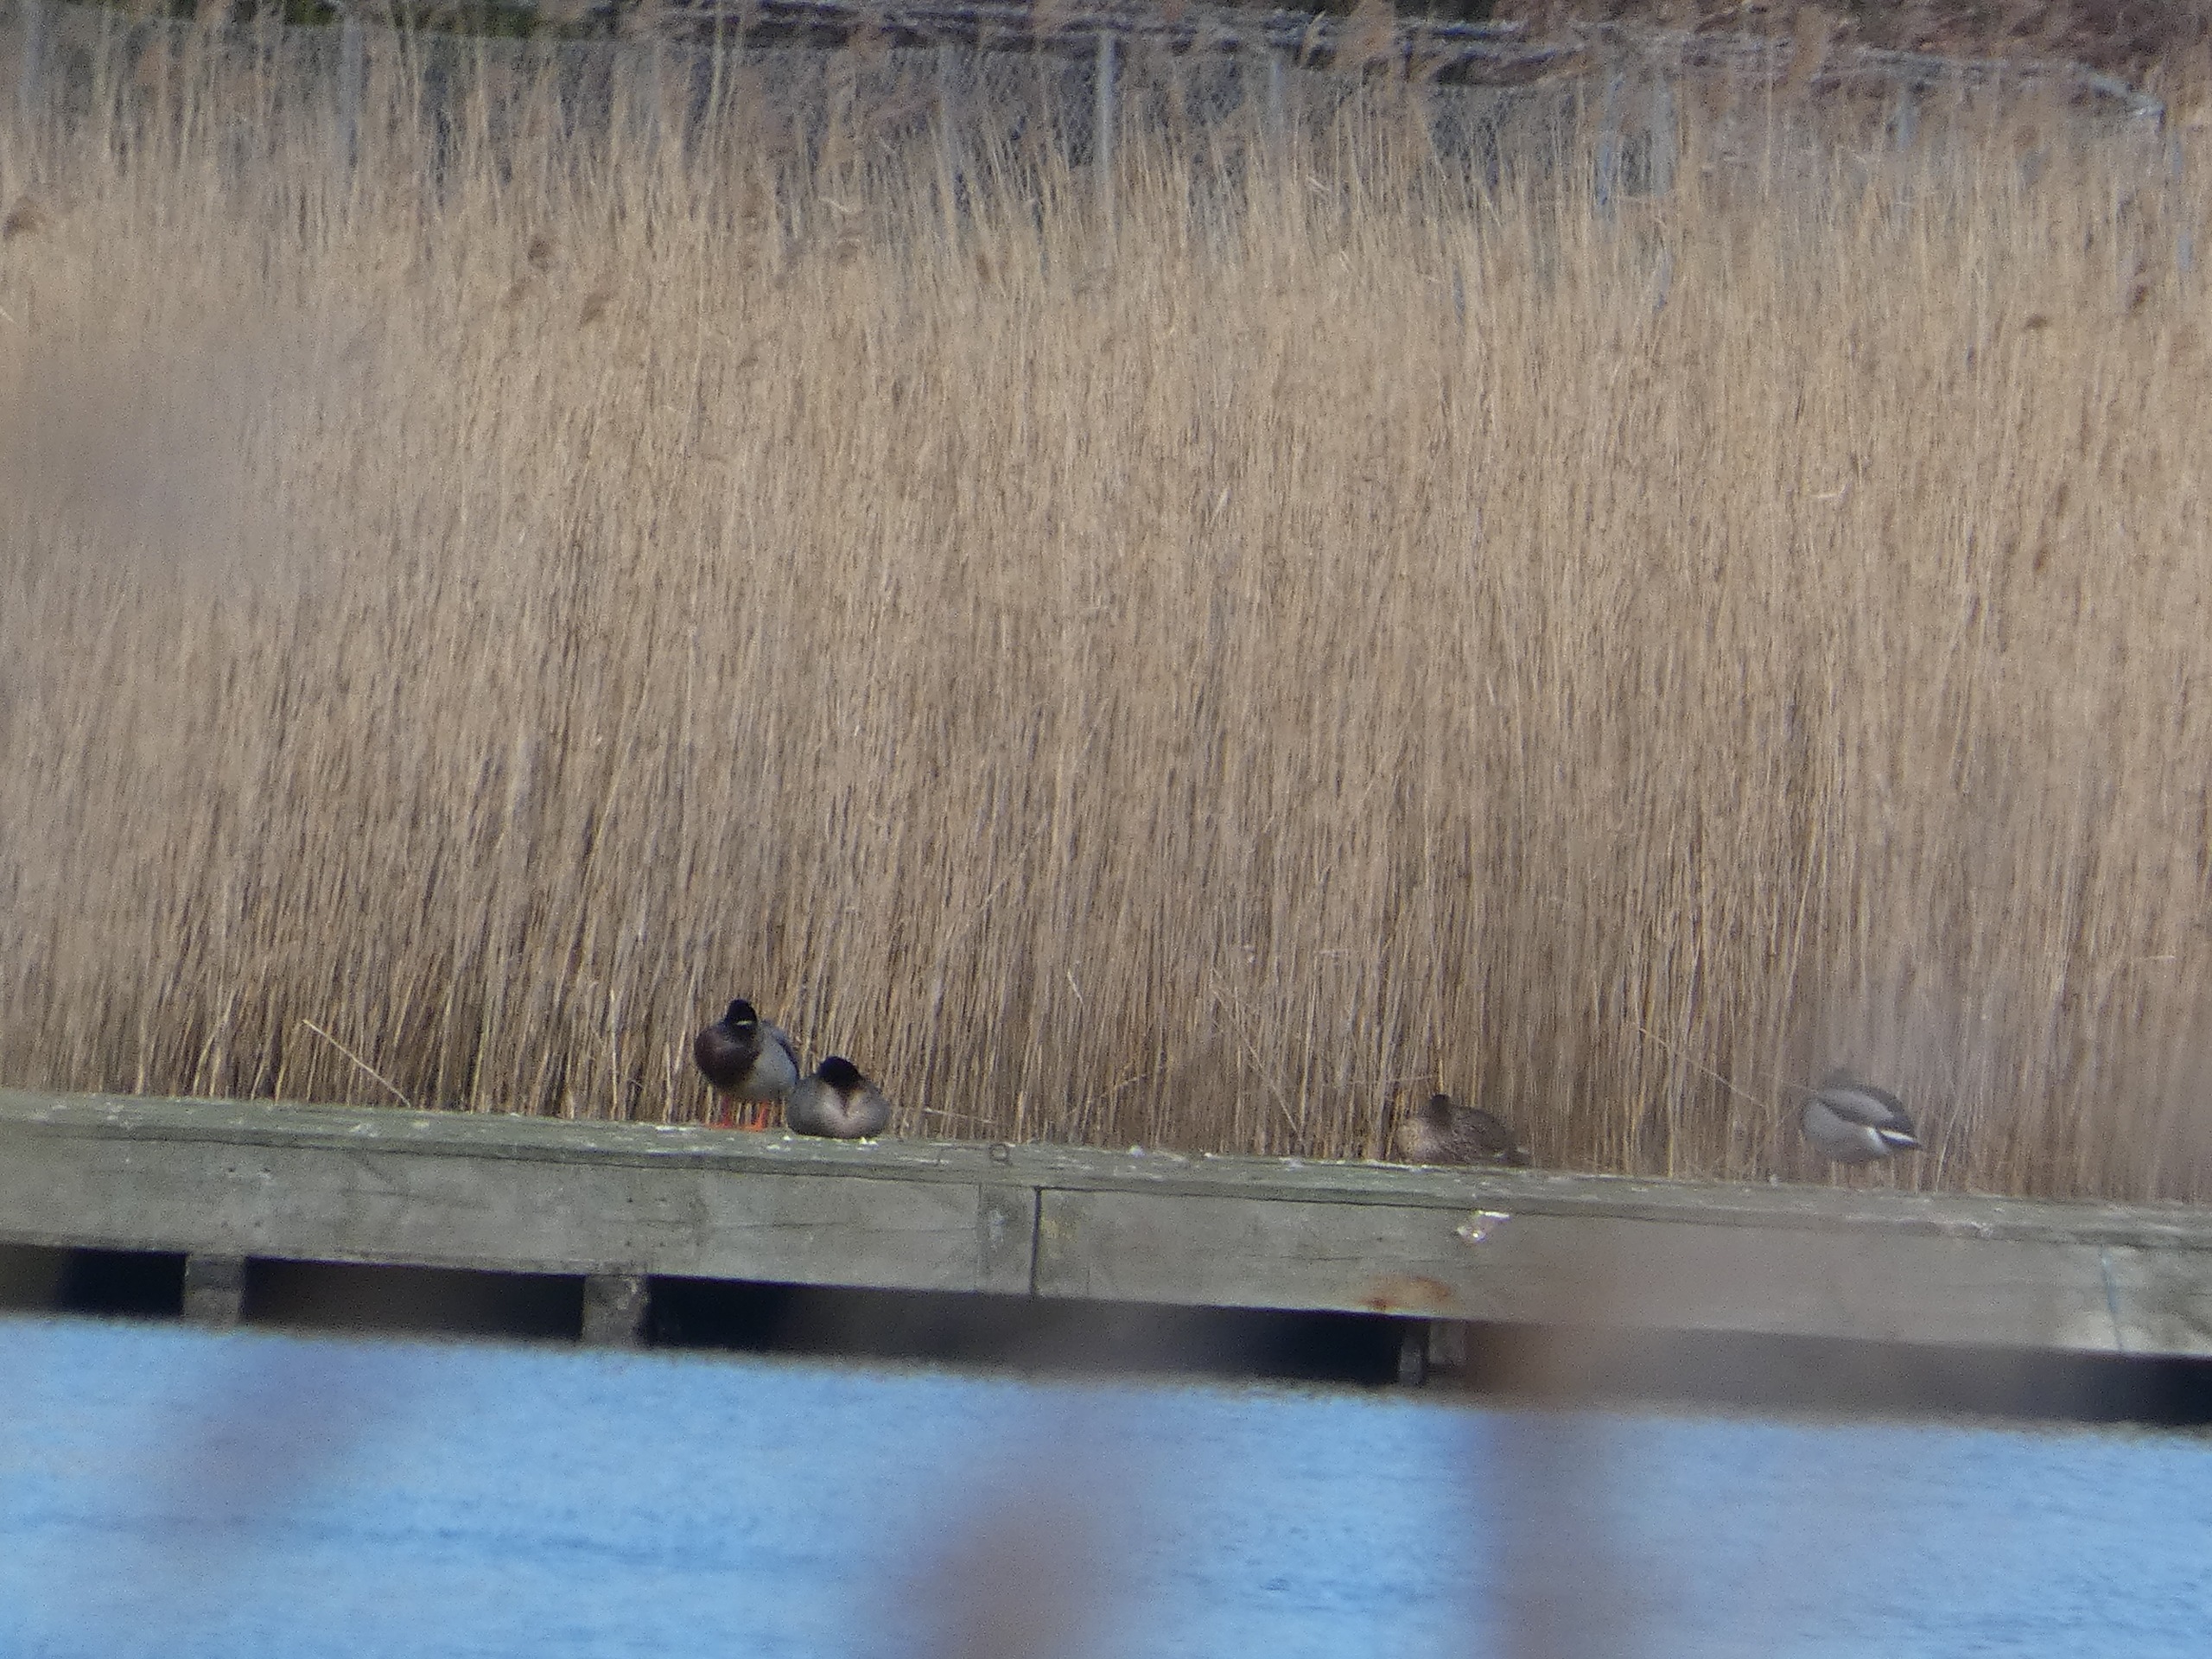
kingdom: Animalia
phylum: Chordata
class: Aves
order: Anseriformes
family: Anatidae
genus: Anas
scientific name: Anas platyrhynchos
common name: Gråand
